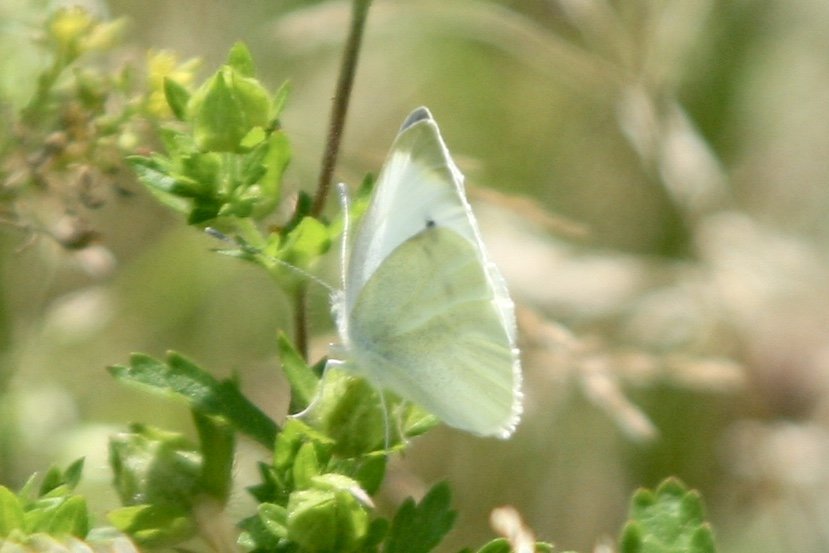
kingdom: Animalia
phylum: Arthropoda
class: Insecta
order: Lepidoptera
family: Pieridae
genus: Pieris
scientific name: Pieris rapae
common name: Cabbage White
